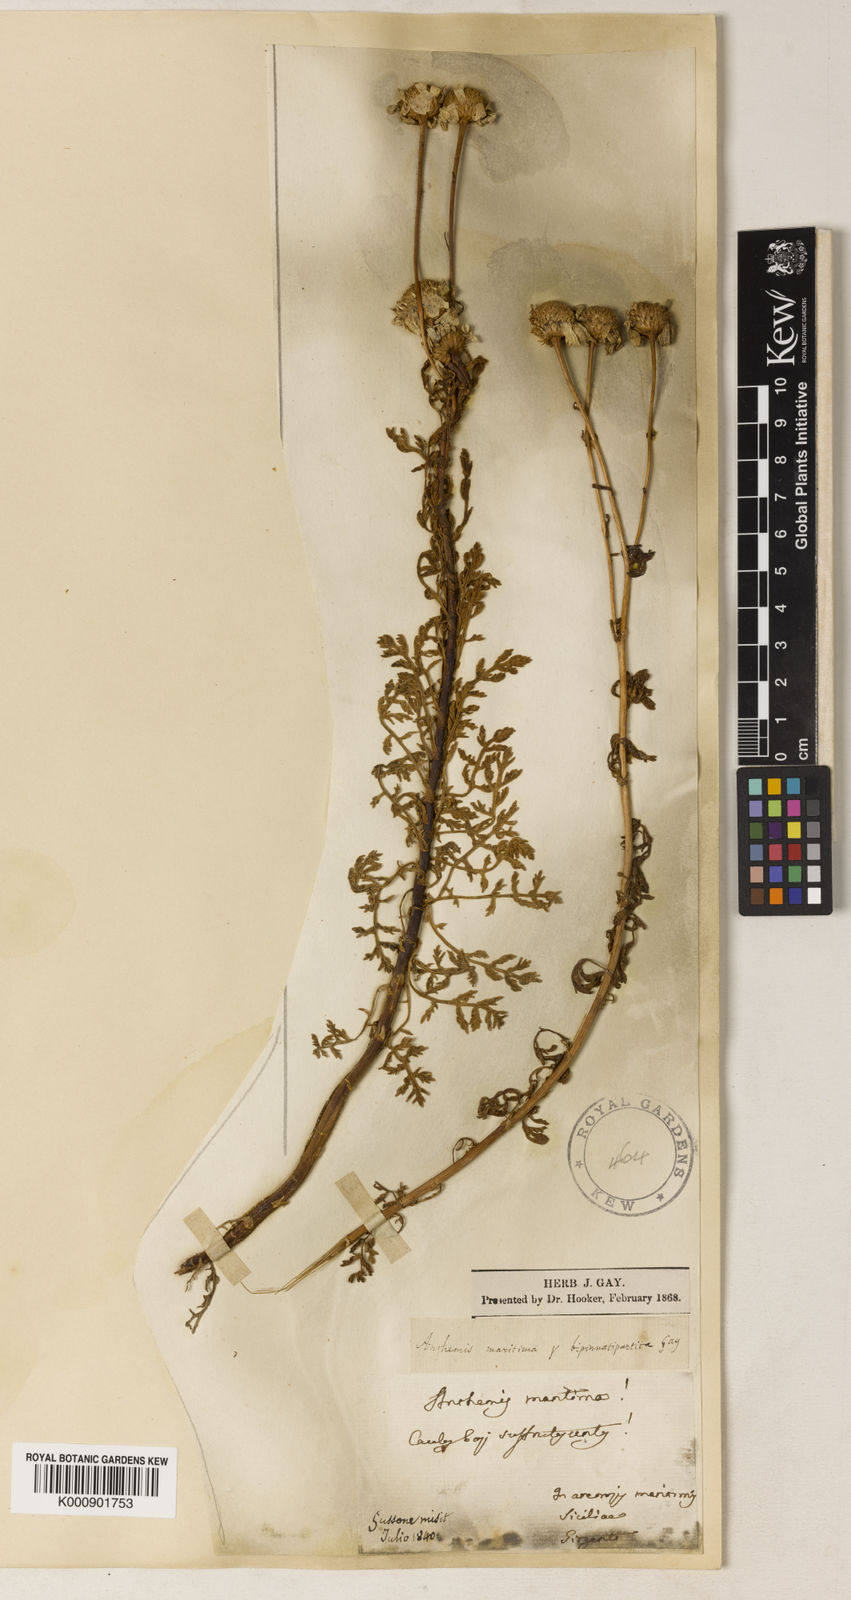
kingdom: Plantae
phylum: Tracheophyta
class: Magnoliopsida
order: Asterales
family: Asteraceae
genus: Anthemis
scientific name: Anthemis maritima
